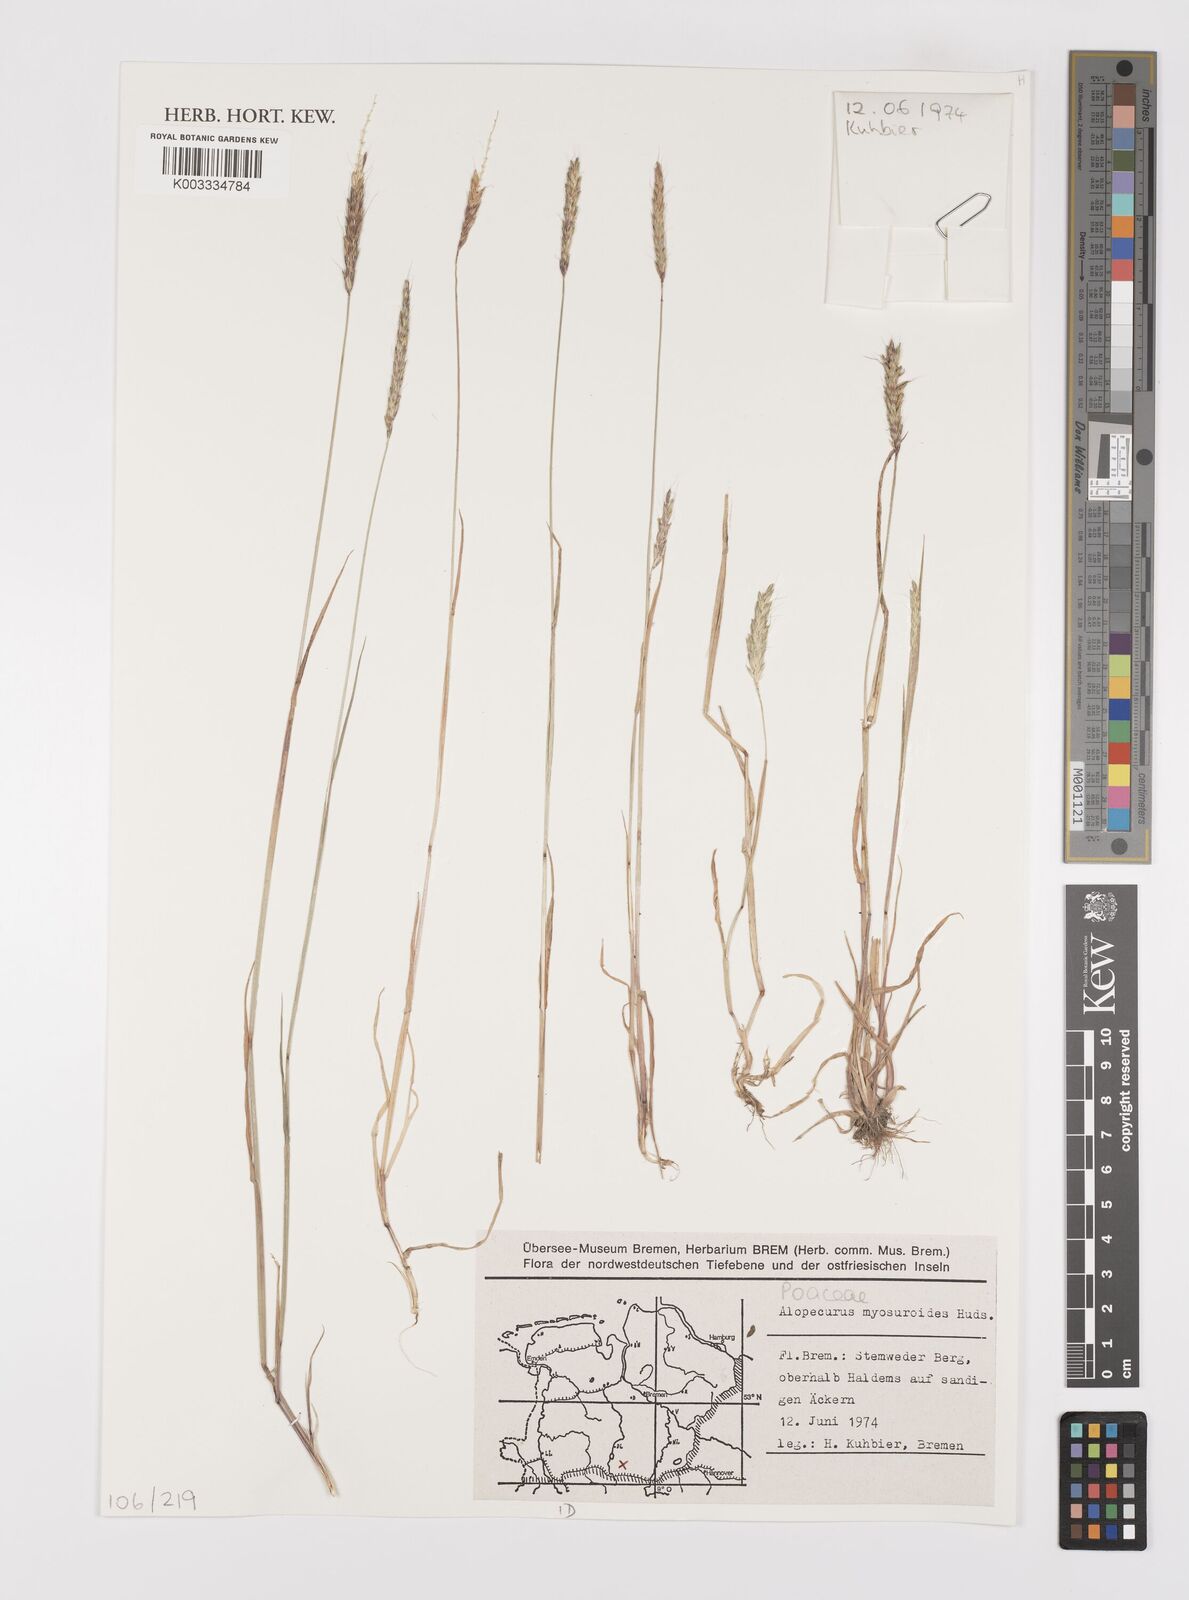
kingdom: Plantae
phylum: Tracheophyta
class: Liliopsida
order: Poales
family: Poaceae
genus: Alopecurus
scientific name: Alopecurus myosuroides
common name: Black-grass
